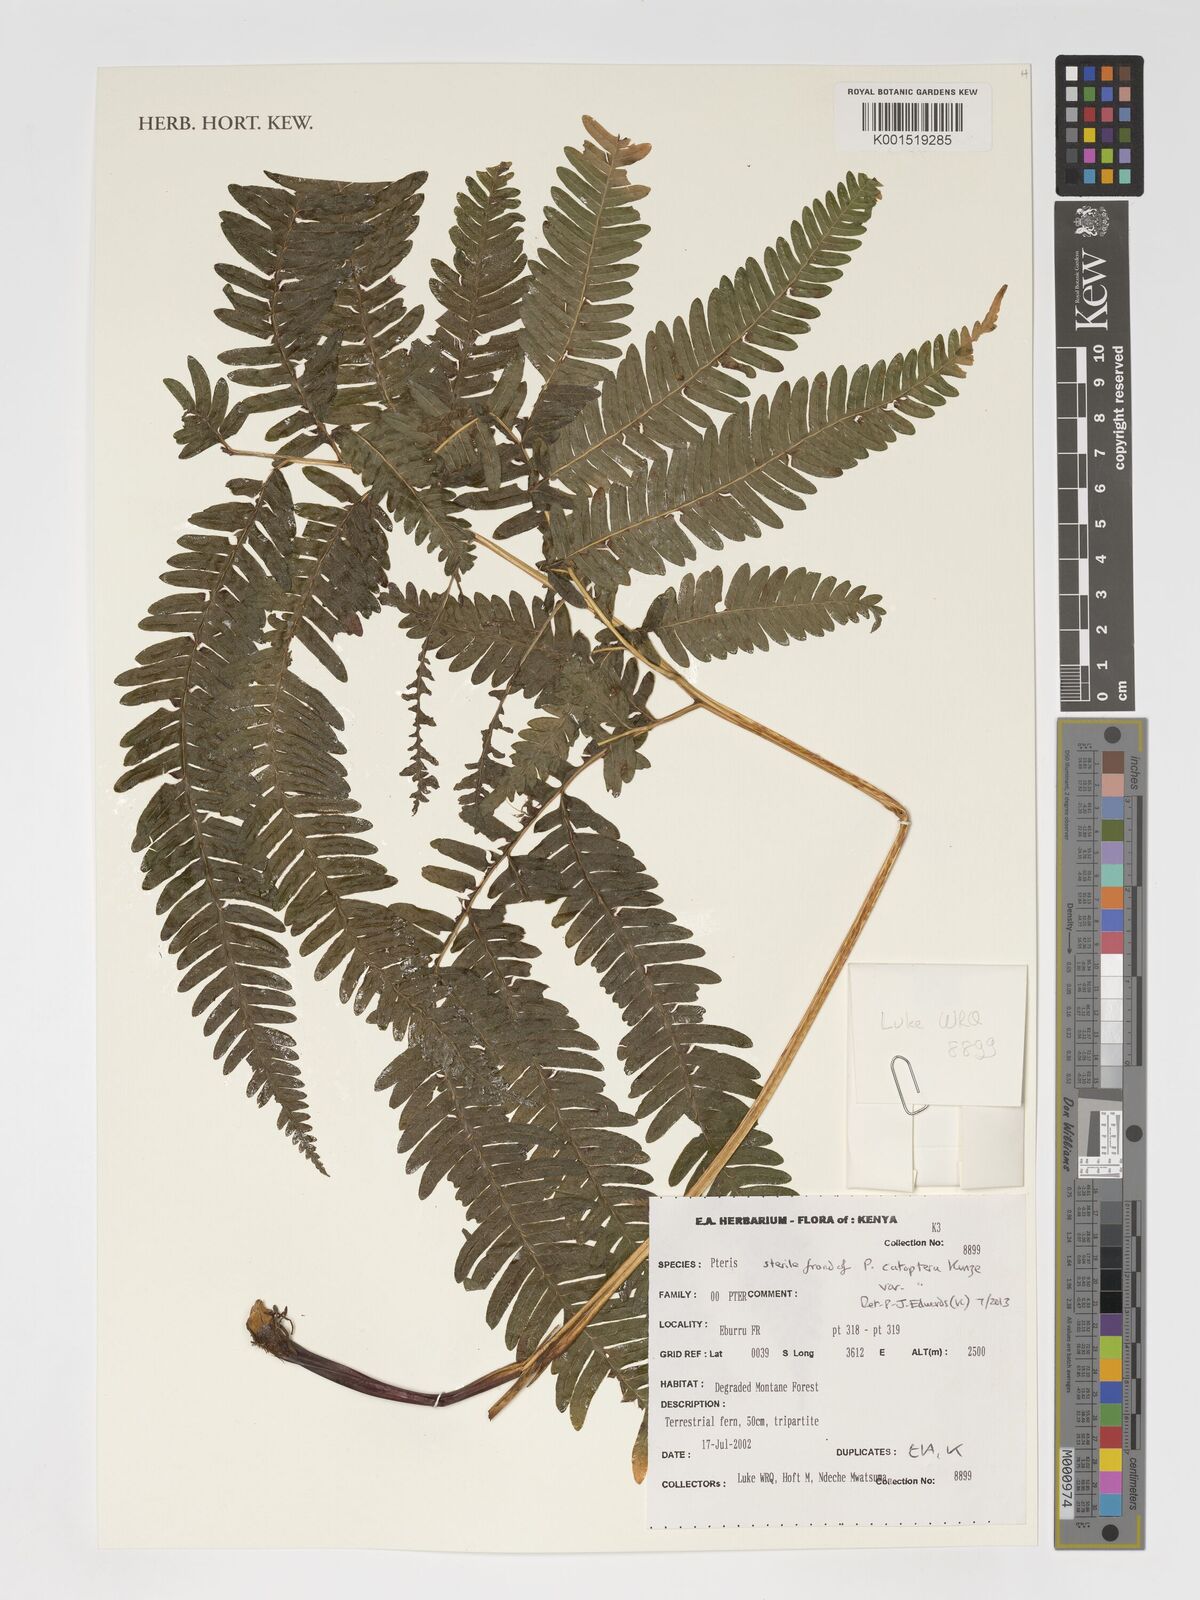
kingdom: Plantae
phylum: Tracheophyta
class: Polypodiopsida
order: Polypodiales
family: Pteridaceae
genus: Pteris
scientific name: Pteris catoptera
